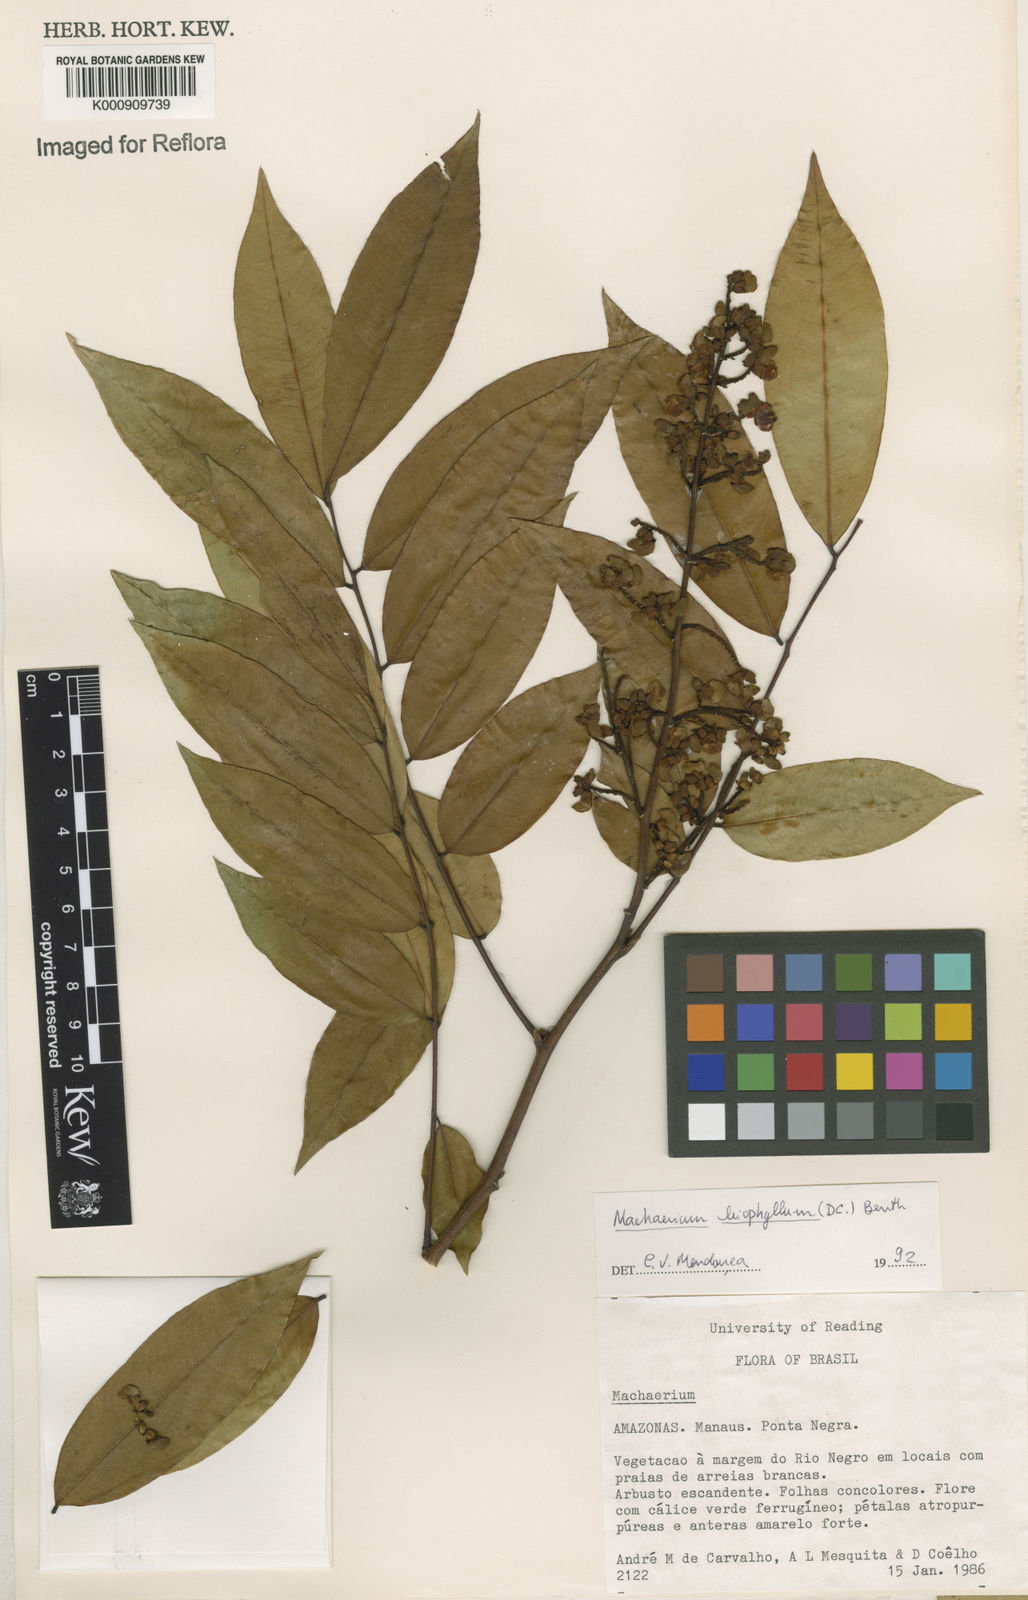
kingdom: Plantae
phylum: Tracheophyta
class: Magnoliopsida
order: Fabales
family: Fabaceae
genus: Machaerium
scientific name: Machaerium leiophyllum
